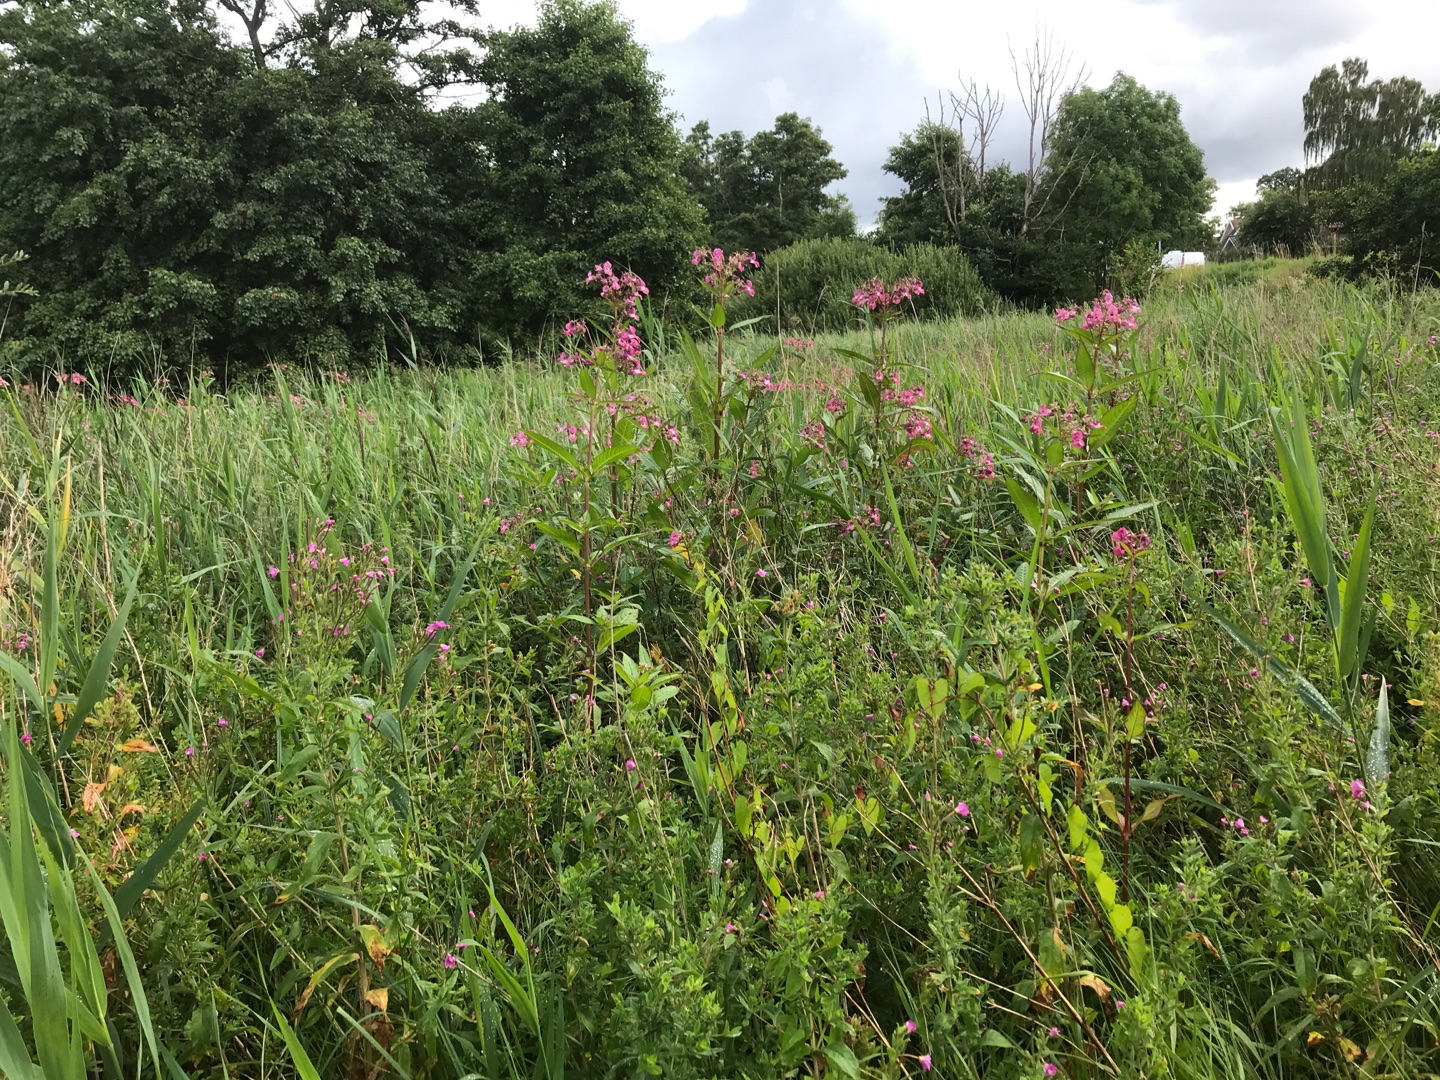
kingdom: Plantae
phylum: Tracheophyta
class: Magnoliopsida
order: Ericales
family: Balsaminaceae
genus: Impatiens
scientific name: Impatiens glandulifera
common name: Kæmpe-balsamin
